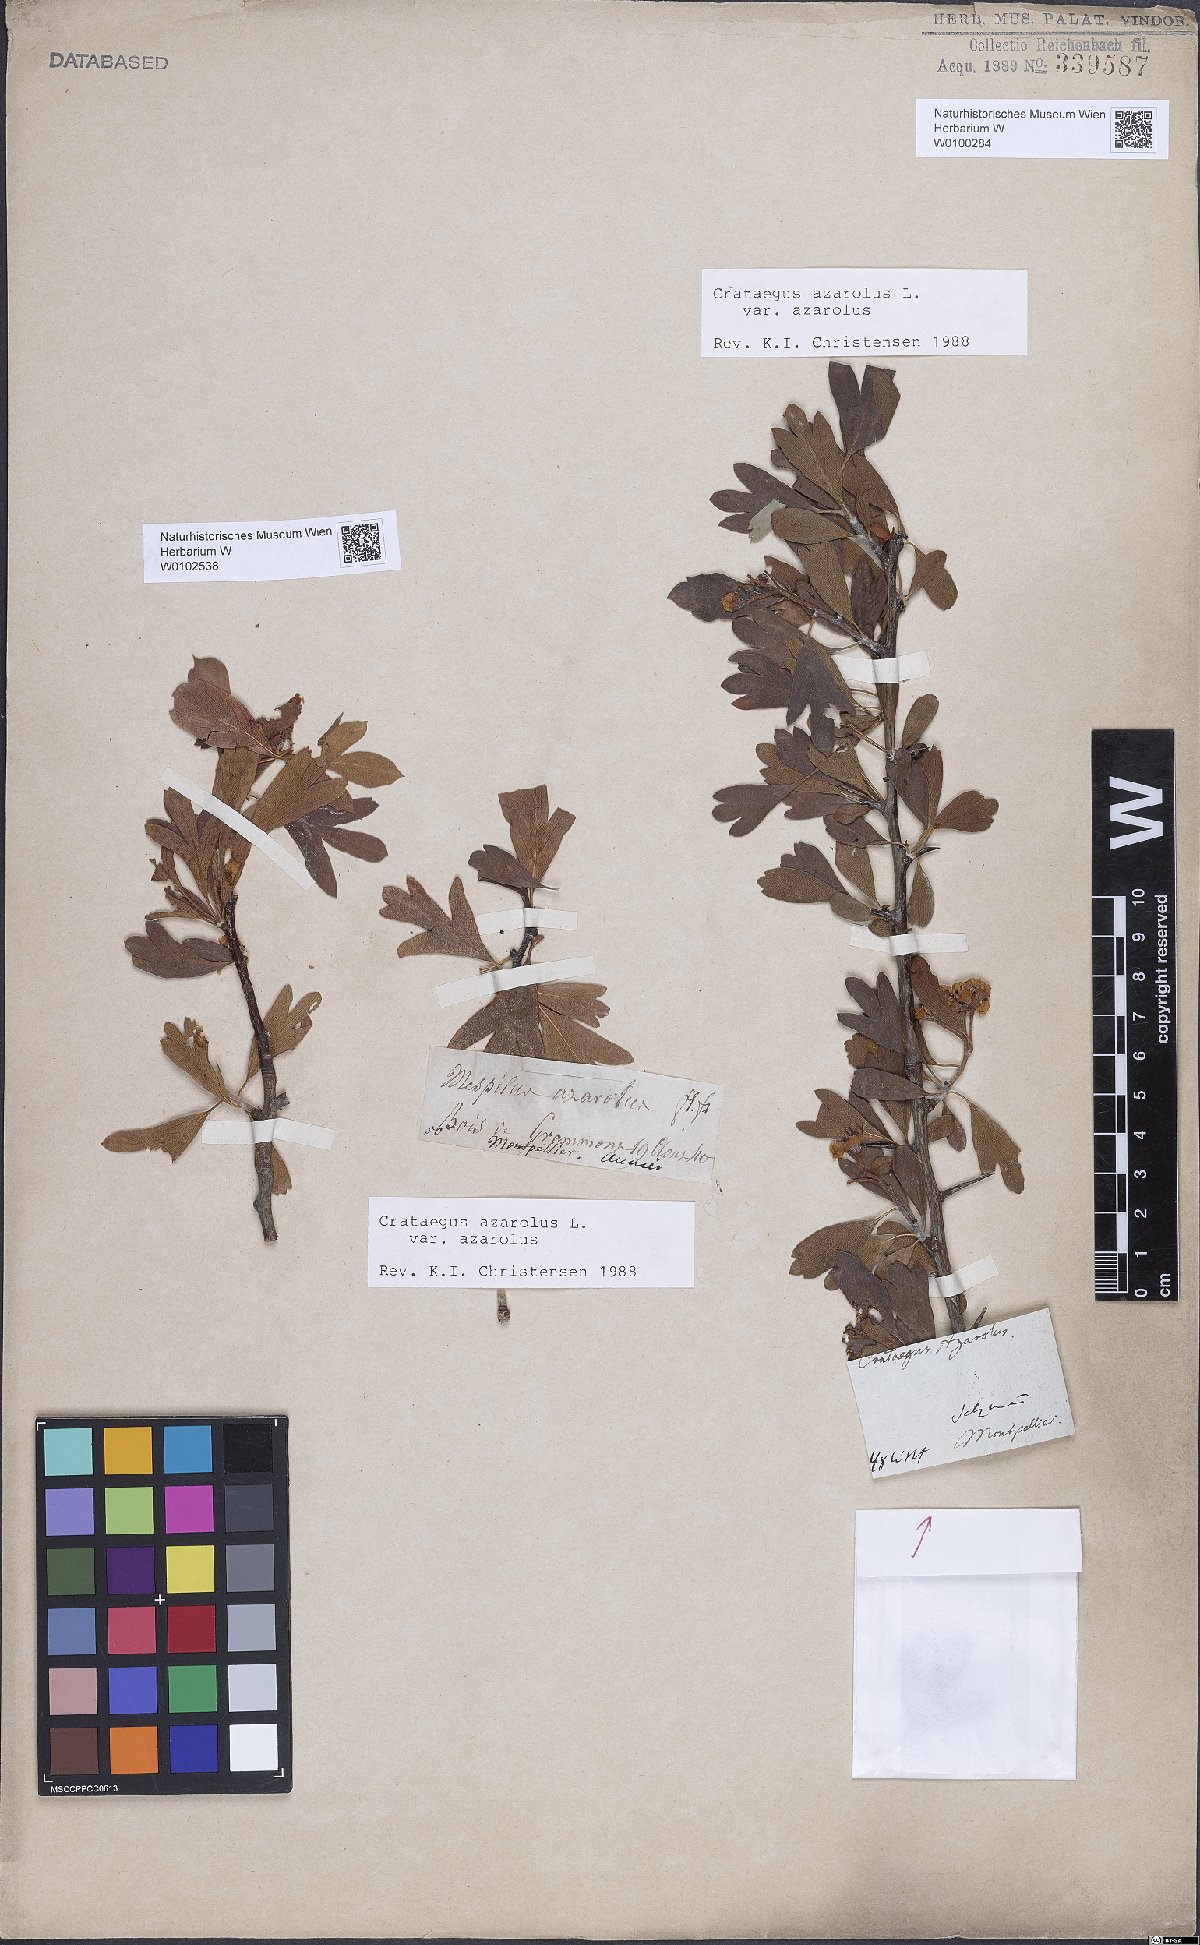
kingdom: Plantae
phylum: Tracheophyta
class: Magnoliopsida
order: Rosales
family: Rosaceae
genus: Crataegus
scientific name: Crataegus azarolus
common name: Azarole
